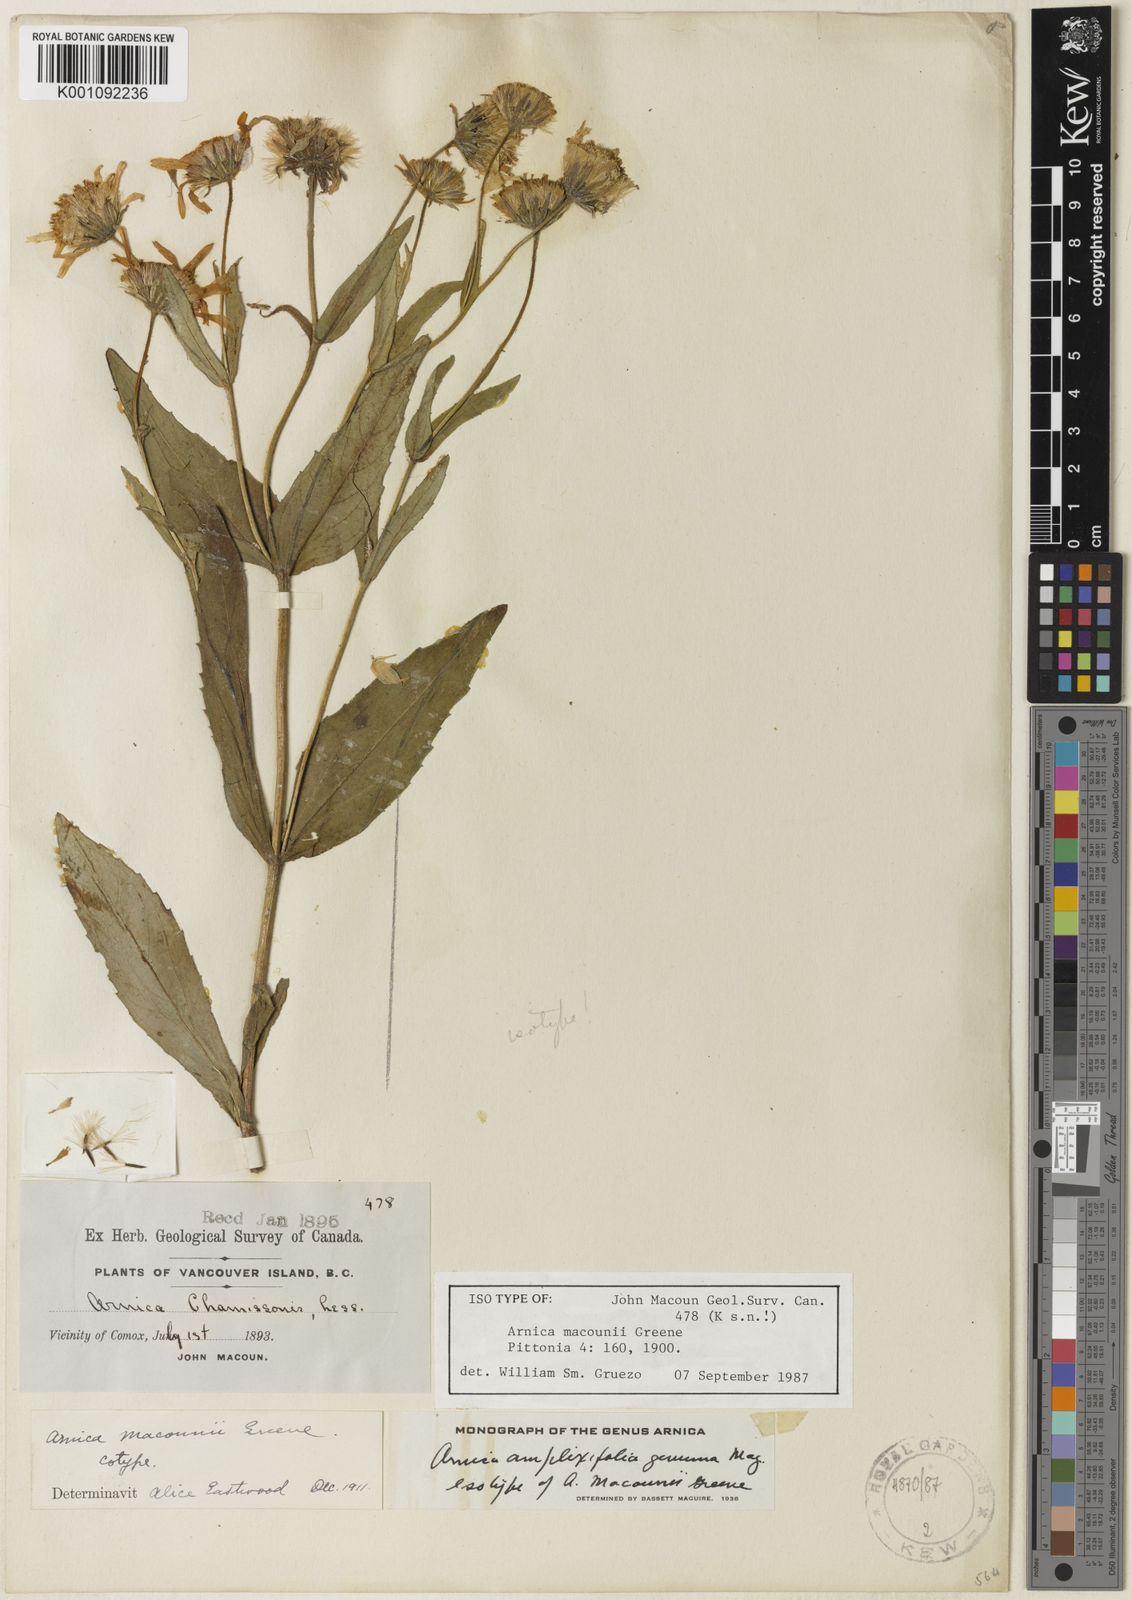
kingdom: Plantae
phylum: Tracheophyta
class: Magnoliopsida
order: Asterales
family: Asteraceae
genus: Arnica
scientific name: Arnica lanceolata
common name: Lance-leaved arnica
